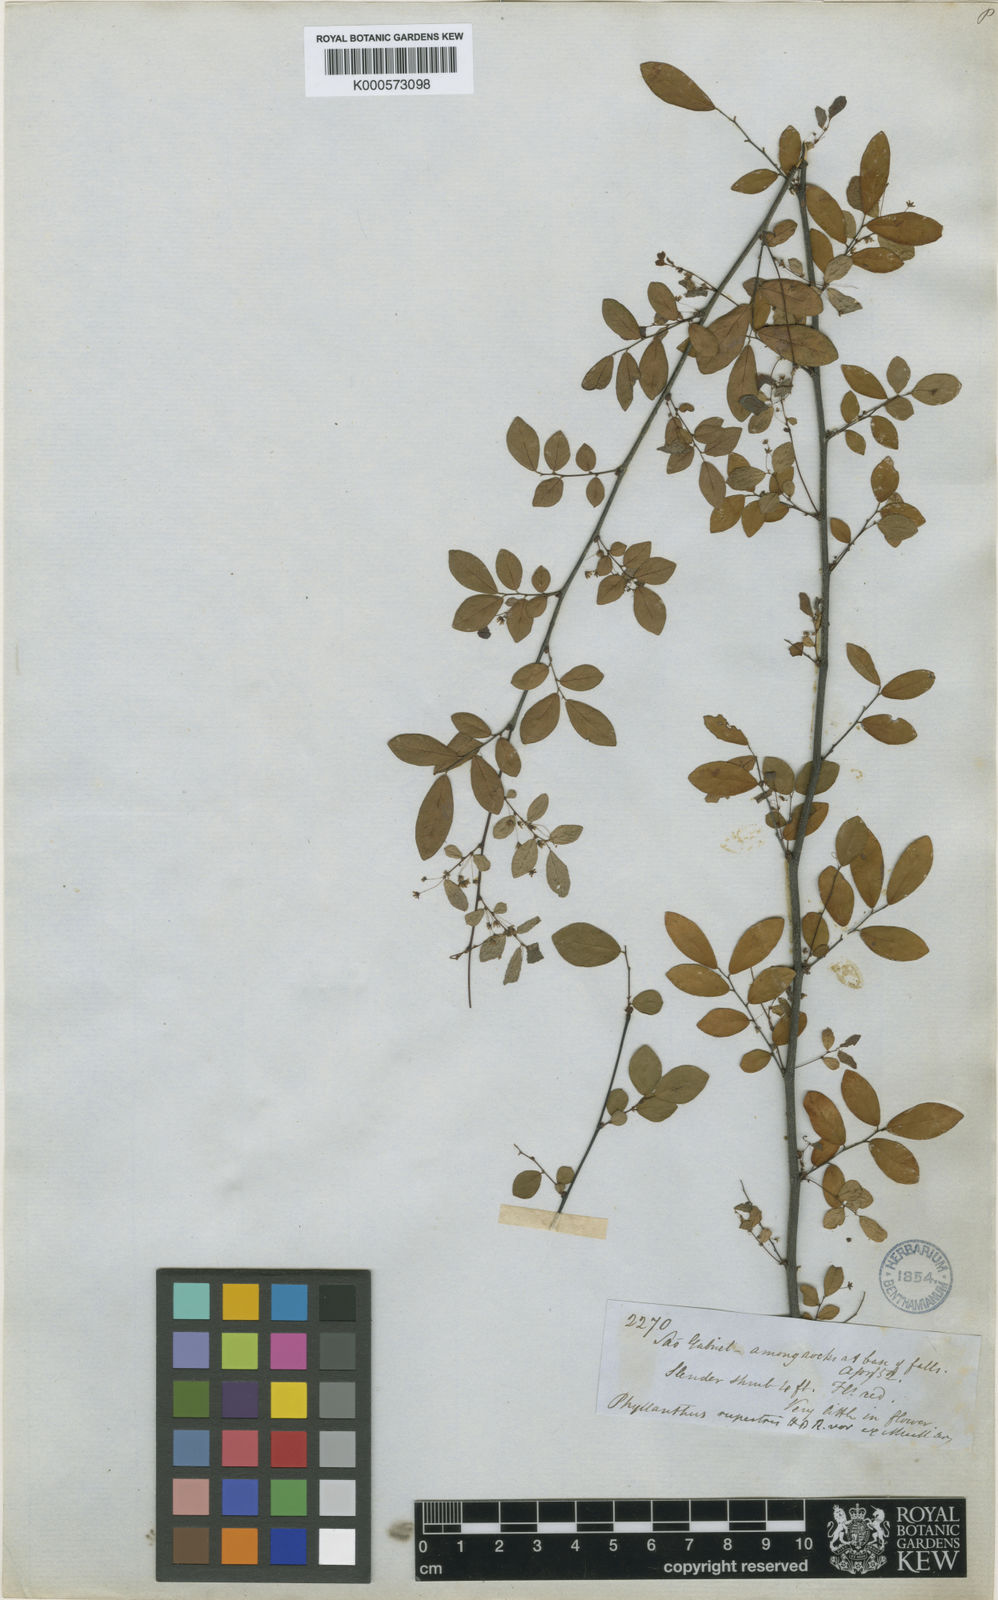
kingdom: Plantae
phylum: Tracheophyta
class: Magnoliopsida
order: Malpighiales
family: Phyllanthaceae
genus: Phyllanthus
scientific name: Phyllanthus rupestris
